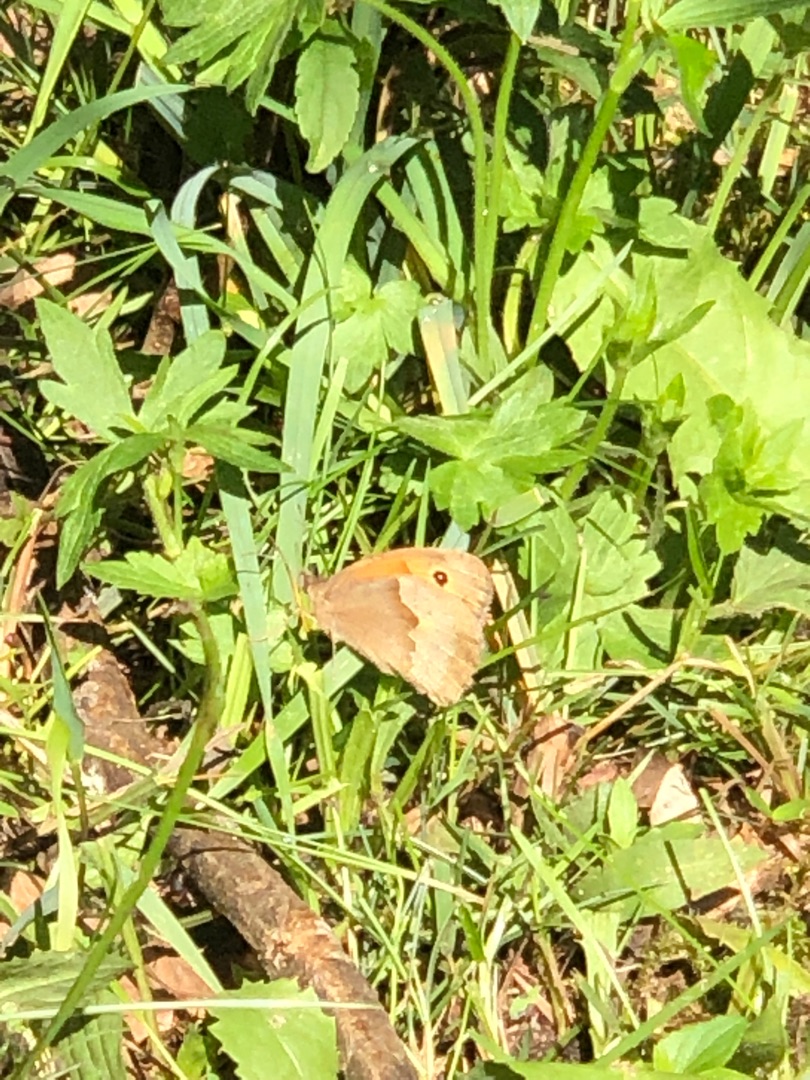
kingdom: Animalia
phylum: Arthropoda
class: Insecta
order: Lepidoptera
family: Nymphalidae
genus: Maniola
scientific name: Maniola jurtina
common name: Græsrandøje
